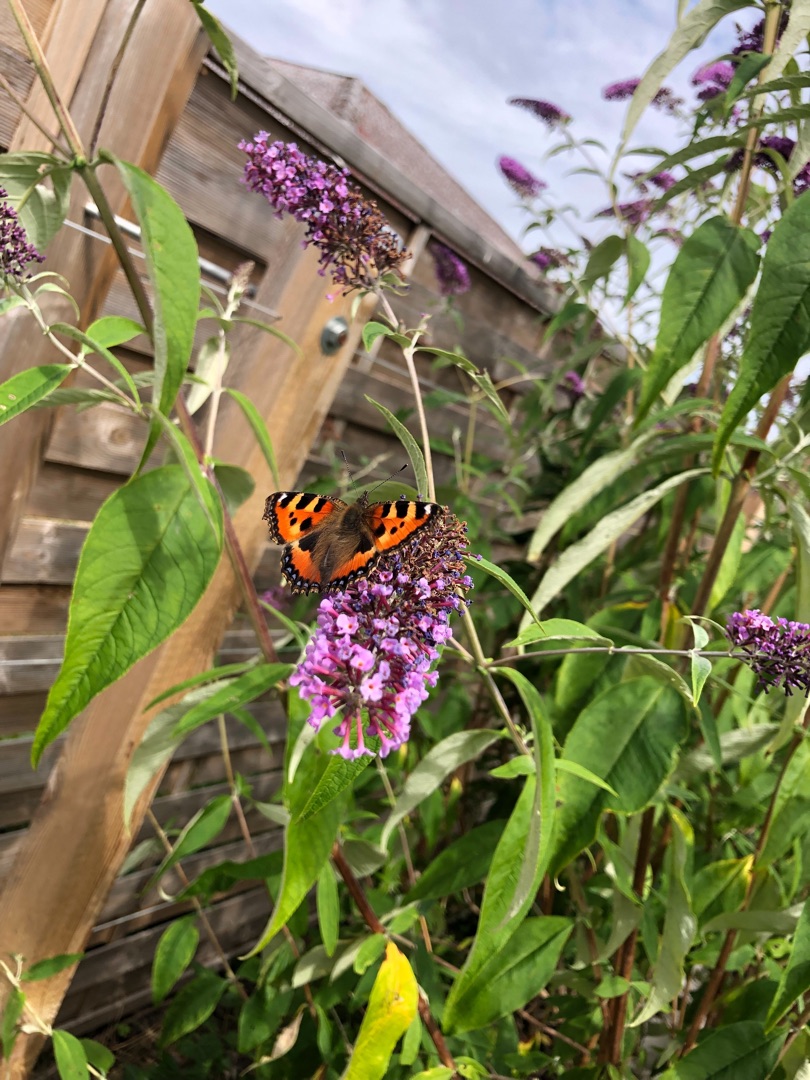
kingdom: Animalia
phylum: Arthropoda
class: Insecta
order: Lepidoptera
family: Nymphalidae
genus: Aglais
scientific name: Aglais urticae
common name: Nældens takvinge
